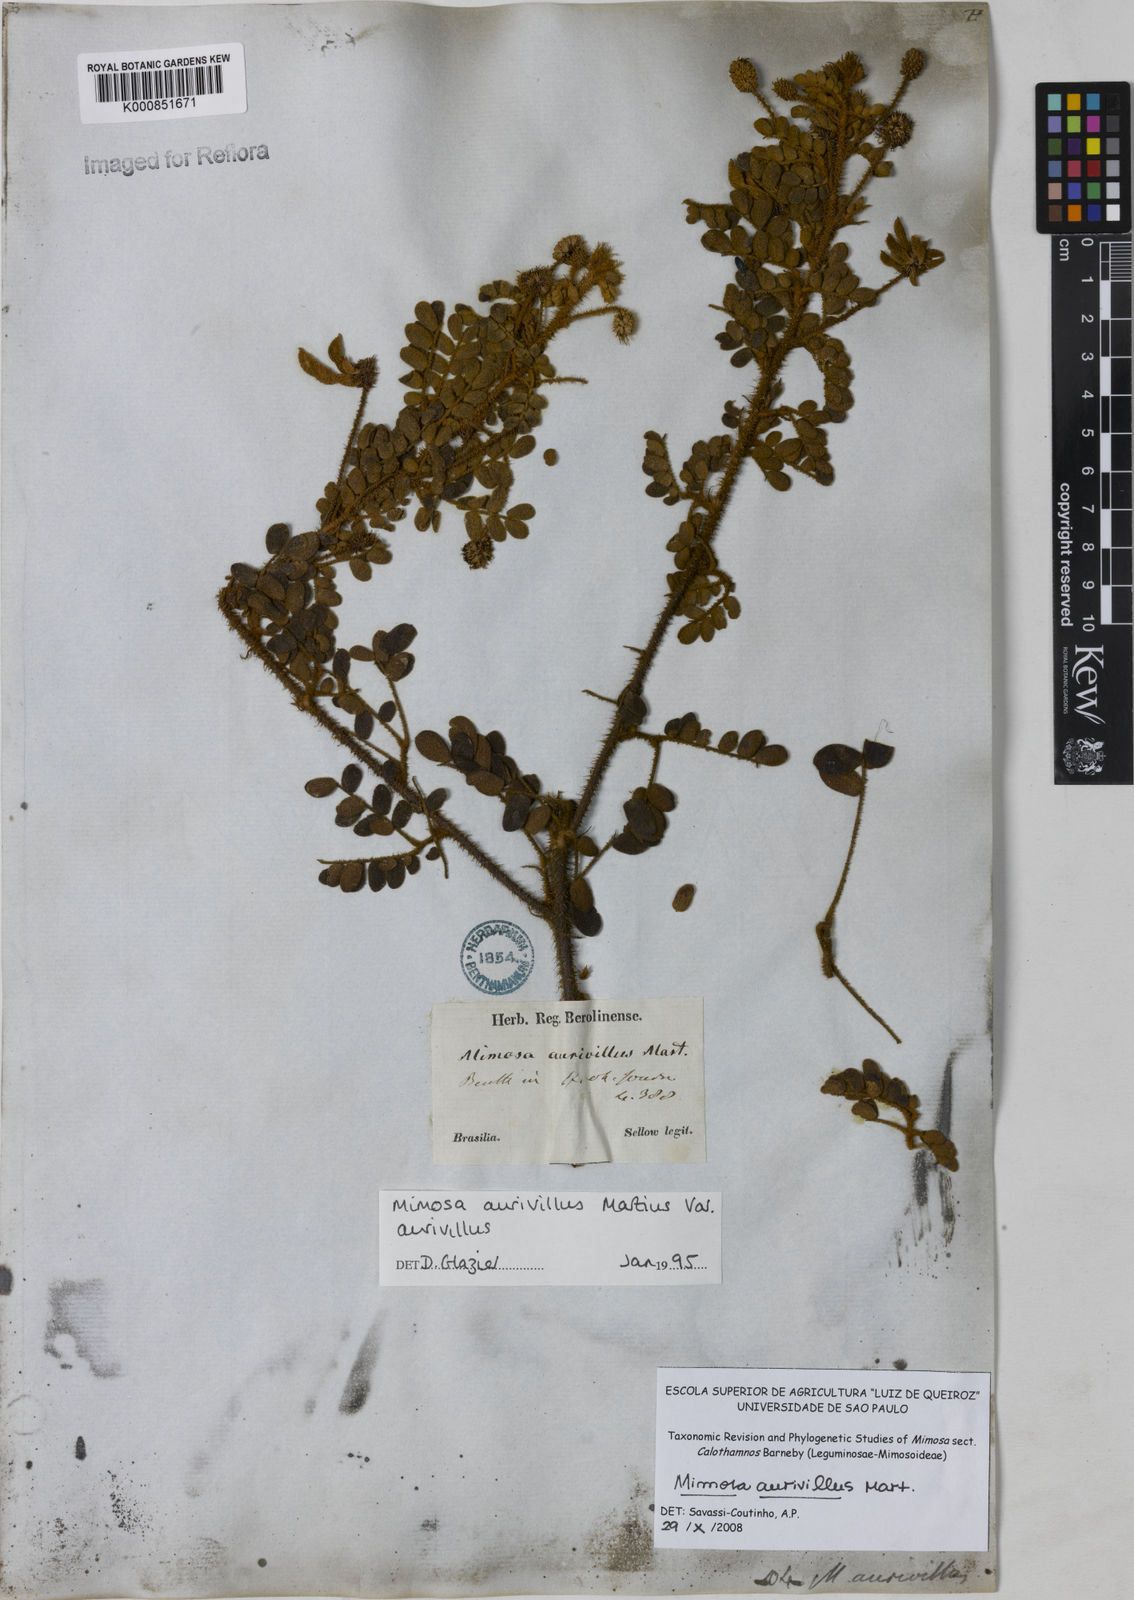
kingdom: Plantae
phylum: Tracheophyta
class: Magnoliopsida
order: Fabales
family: Fabaceae
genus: Mimosa
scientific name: Mimosa aurivillus
